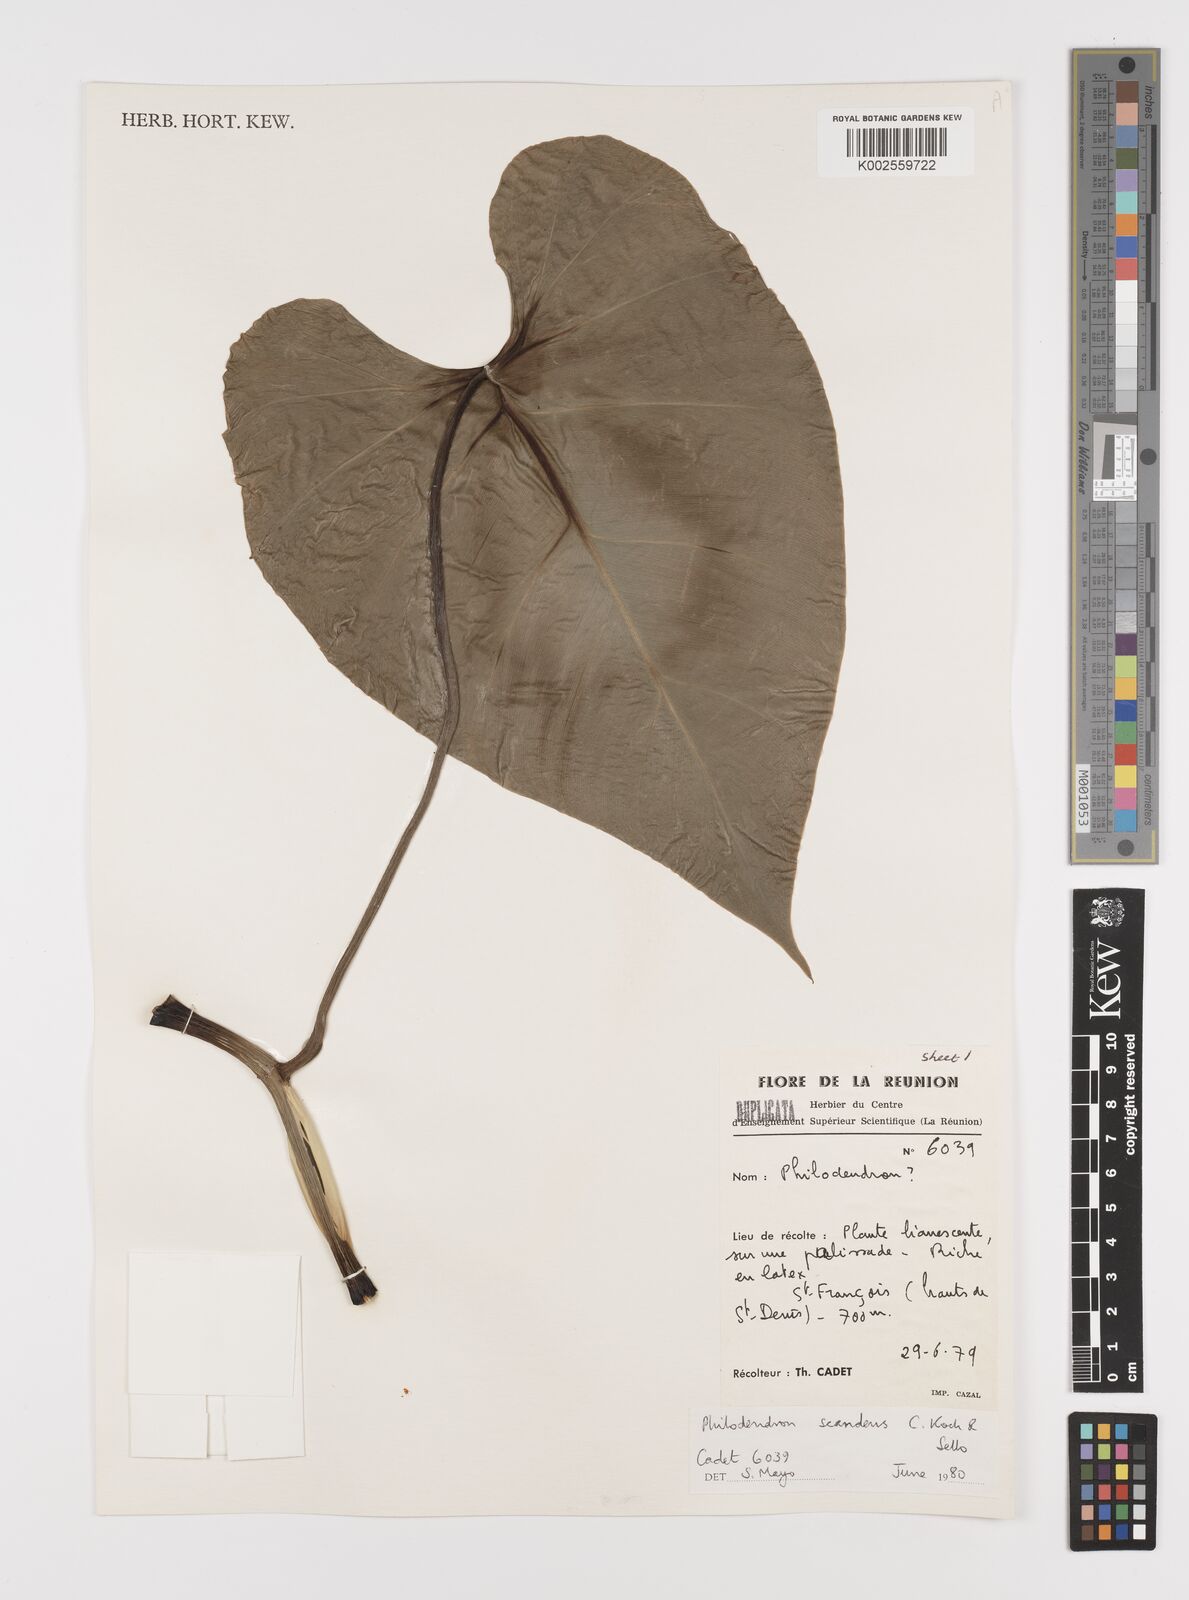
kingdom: Plantae
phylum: Tracheophyta
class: Liliopsida
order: Alismatales
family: Araceae
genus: Philodendron
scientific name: Philodendron hederaceum
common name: Vilevine
